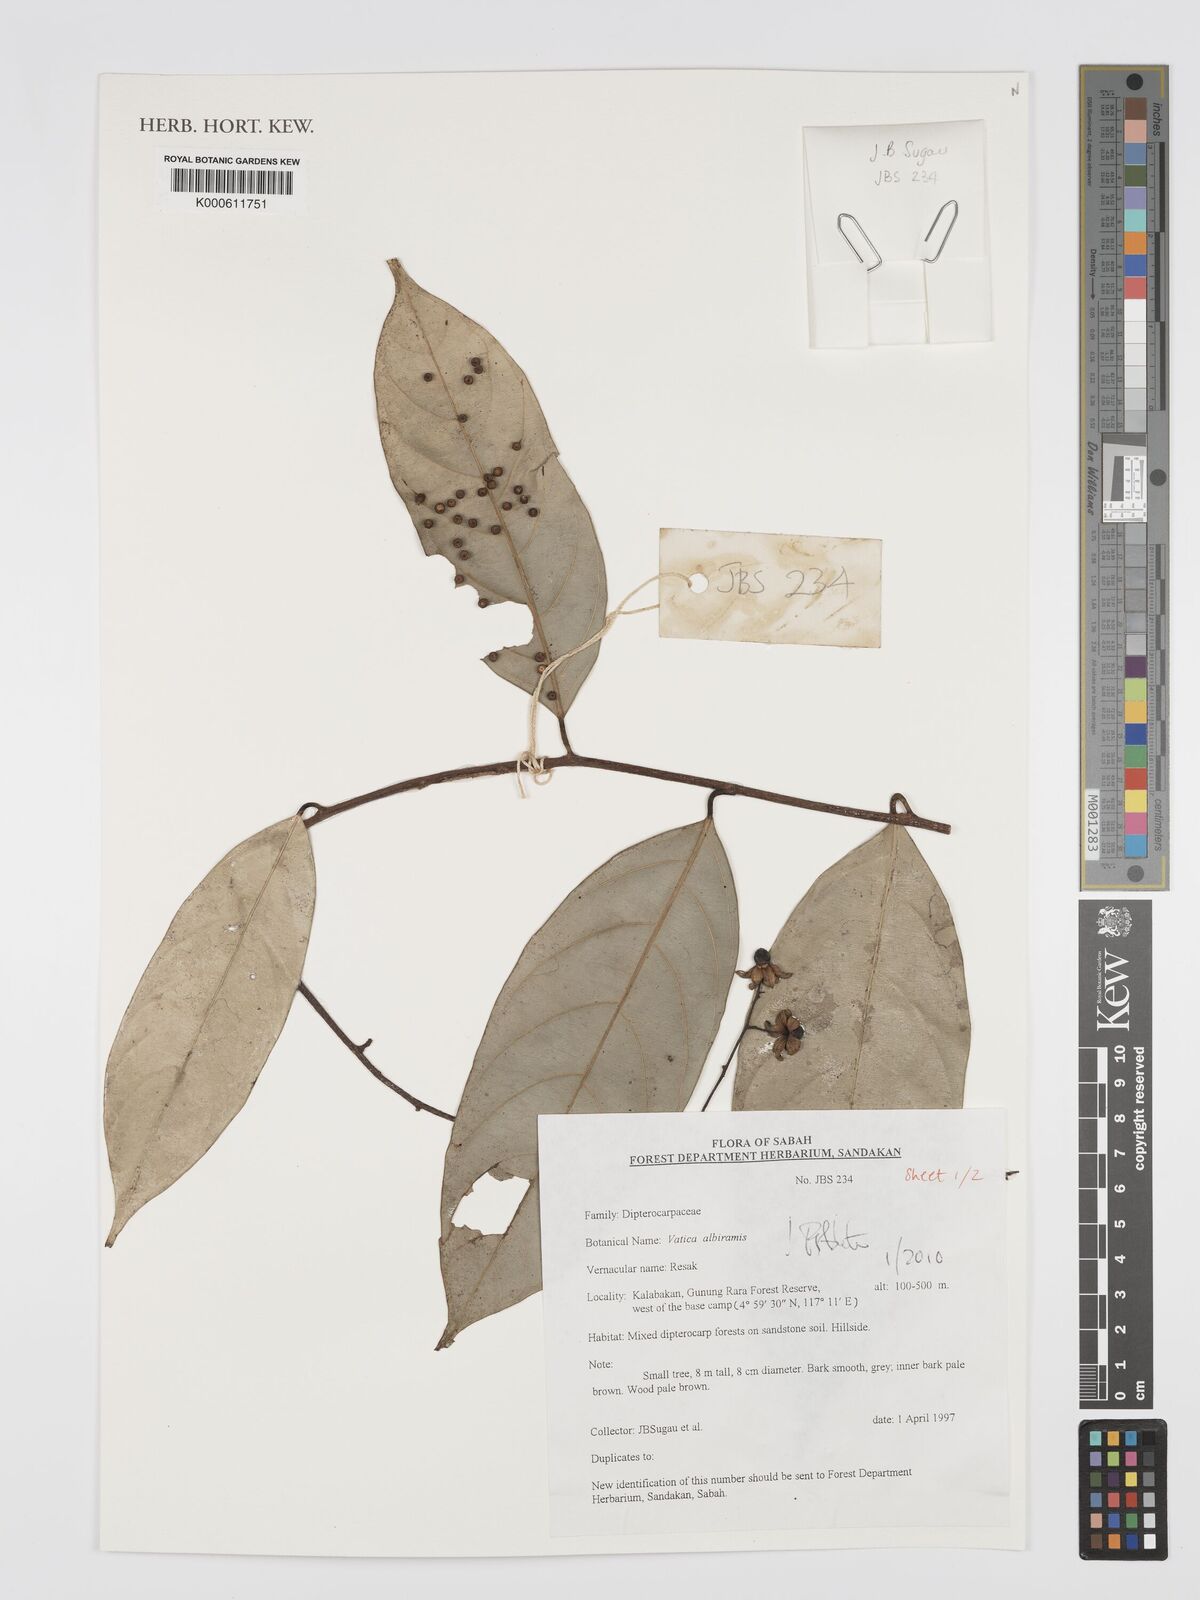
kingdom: Plantae
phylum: Tracheophyta
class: Magnoliopsida
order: Malvales
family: Dipterocarpaceae
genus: Vatica
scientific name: Vatica albiramis
